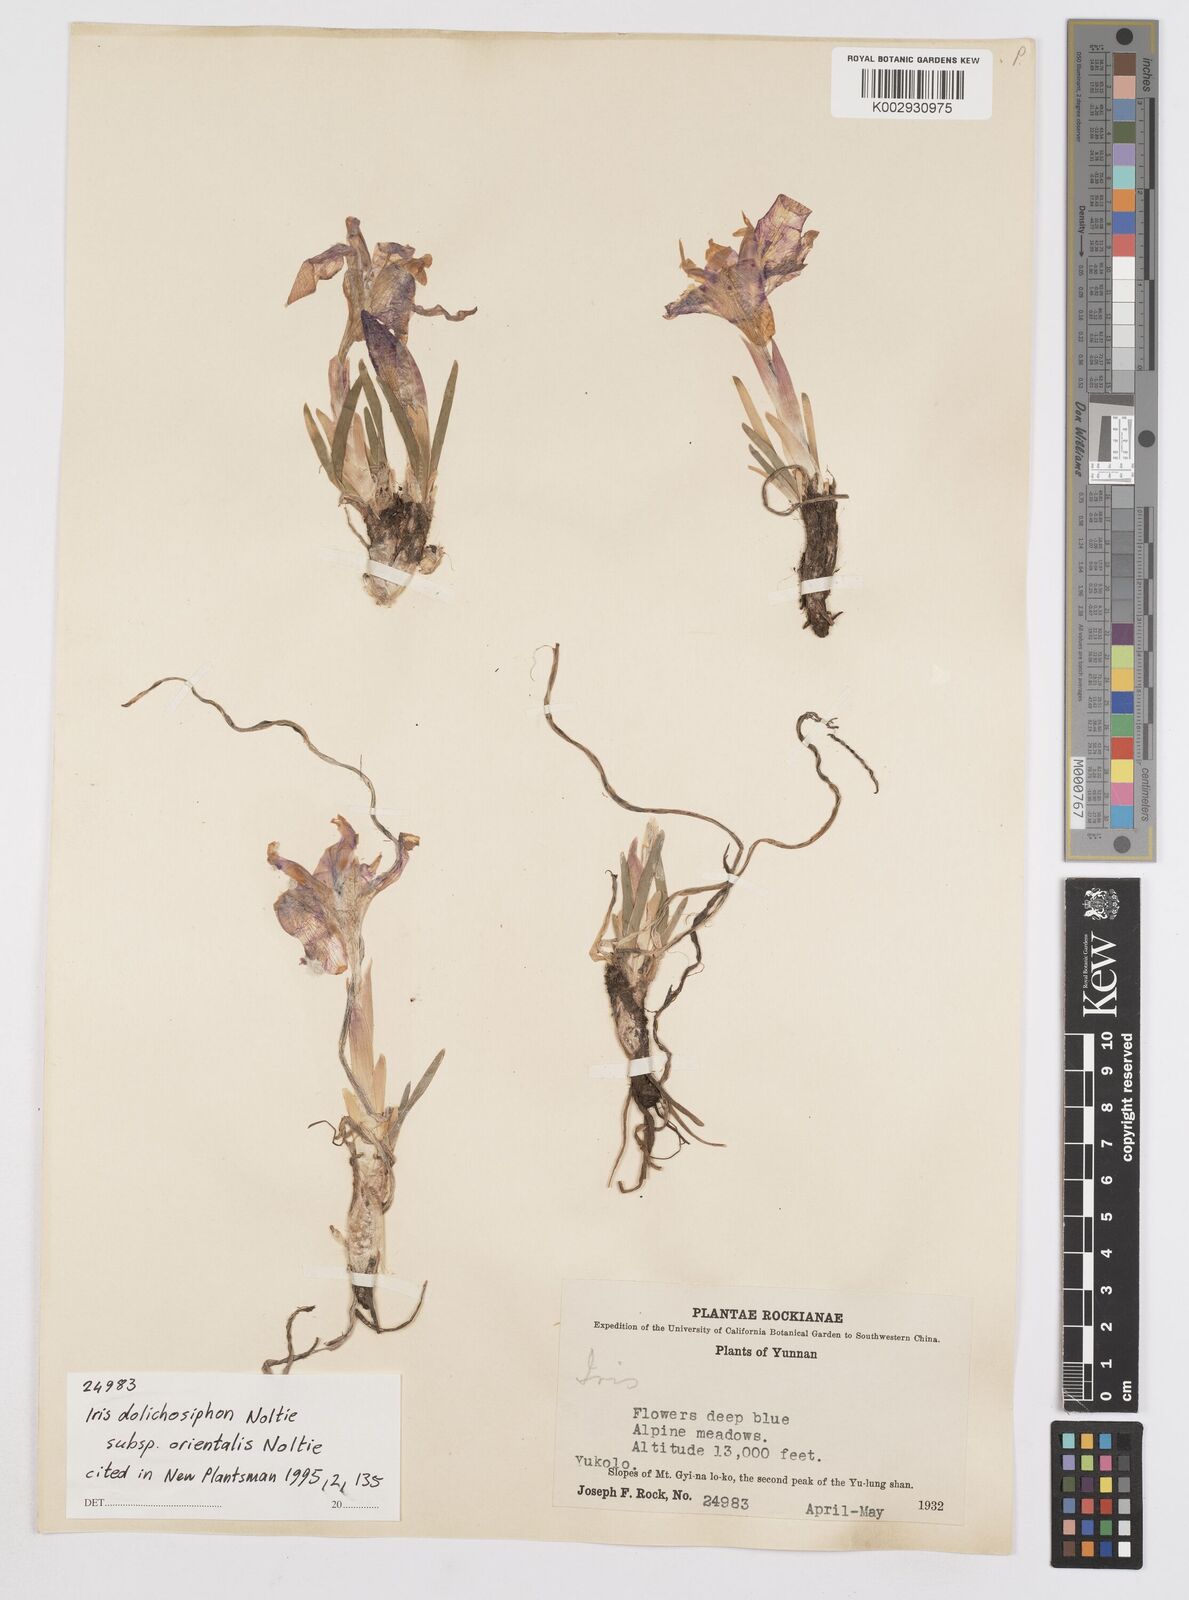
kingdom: Plantae
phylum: Tracheophyta
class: Liliopsida
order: Asparagales
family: Iridaceae
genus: Iris
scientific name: Iris dolichosiphon
